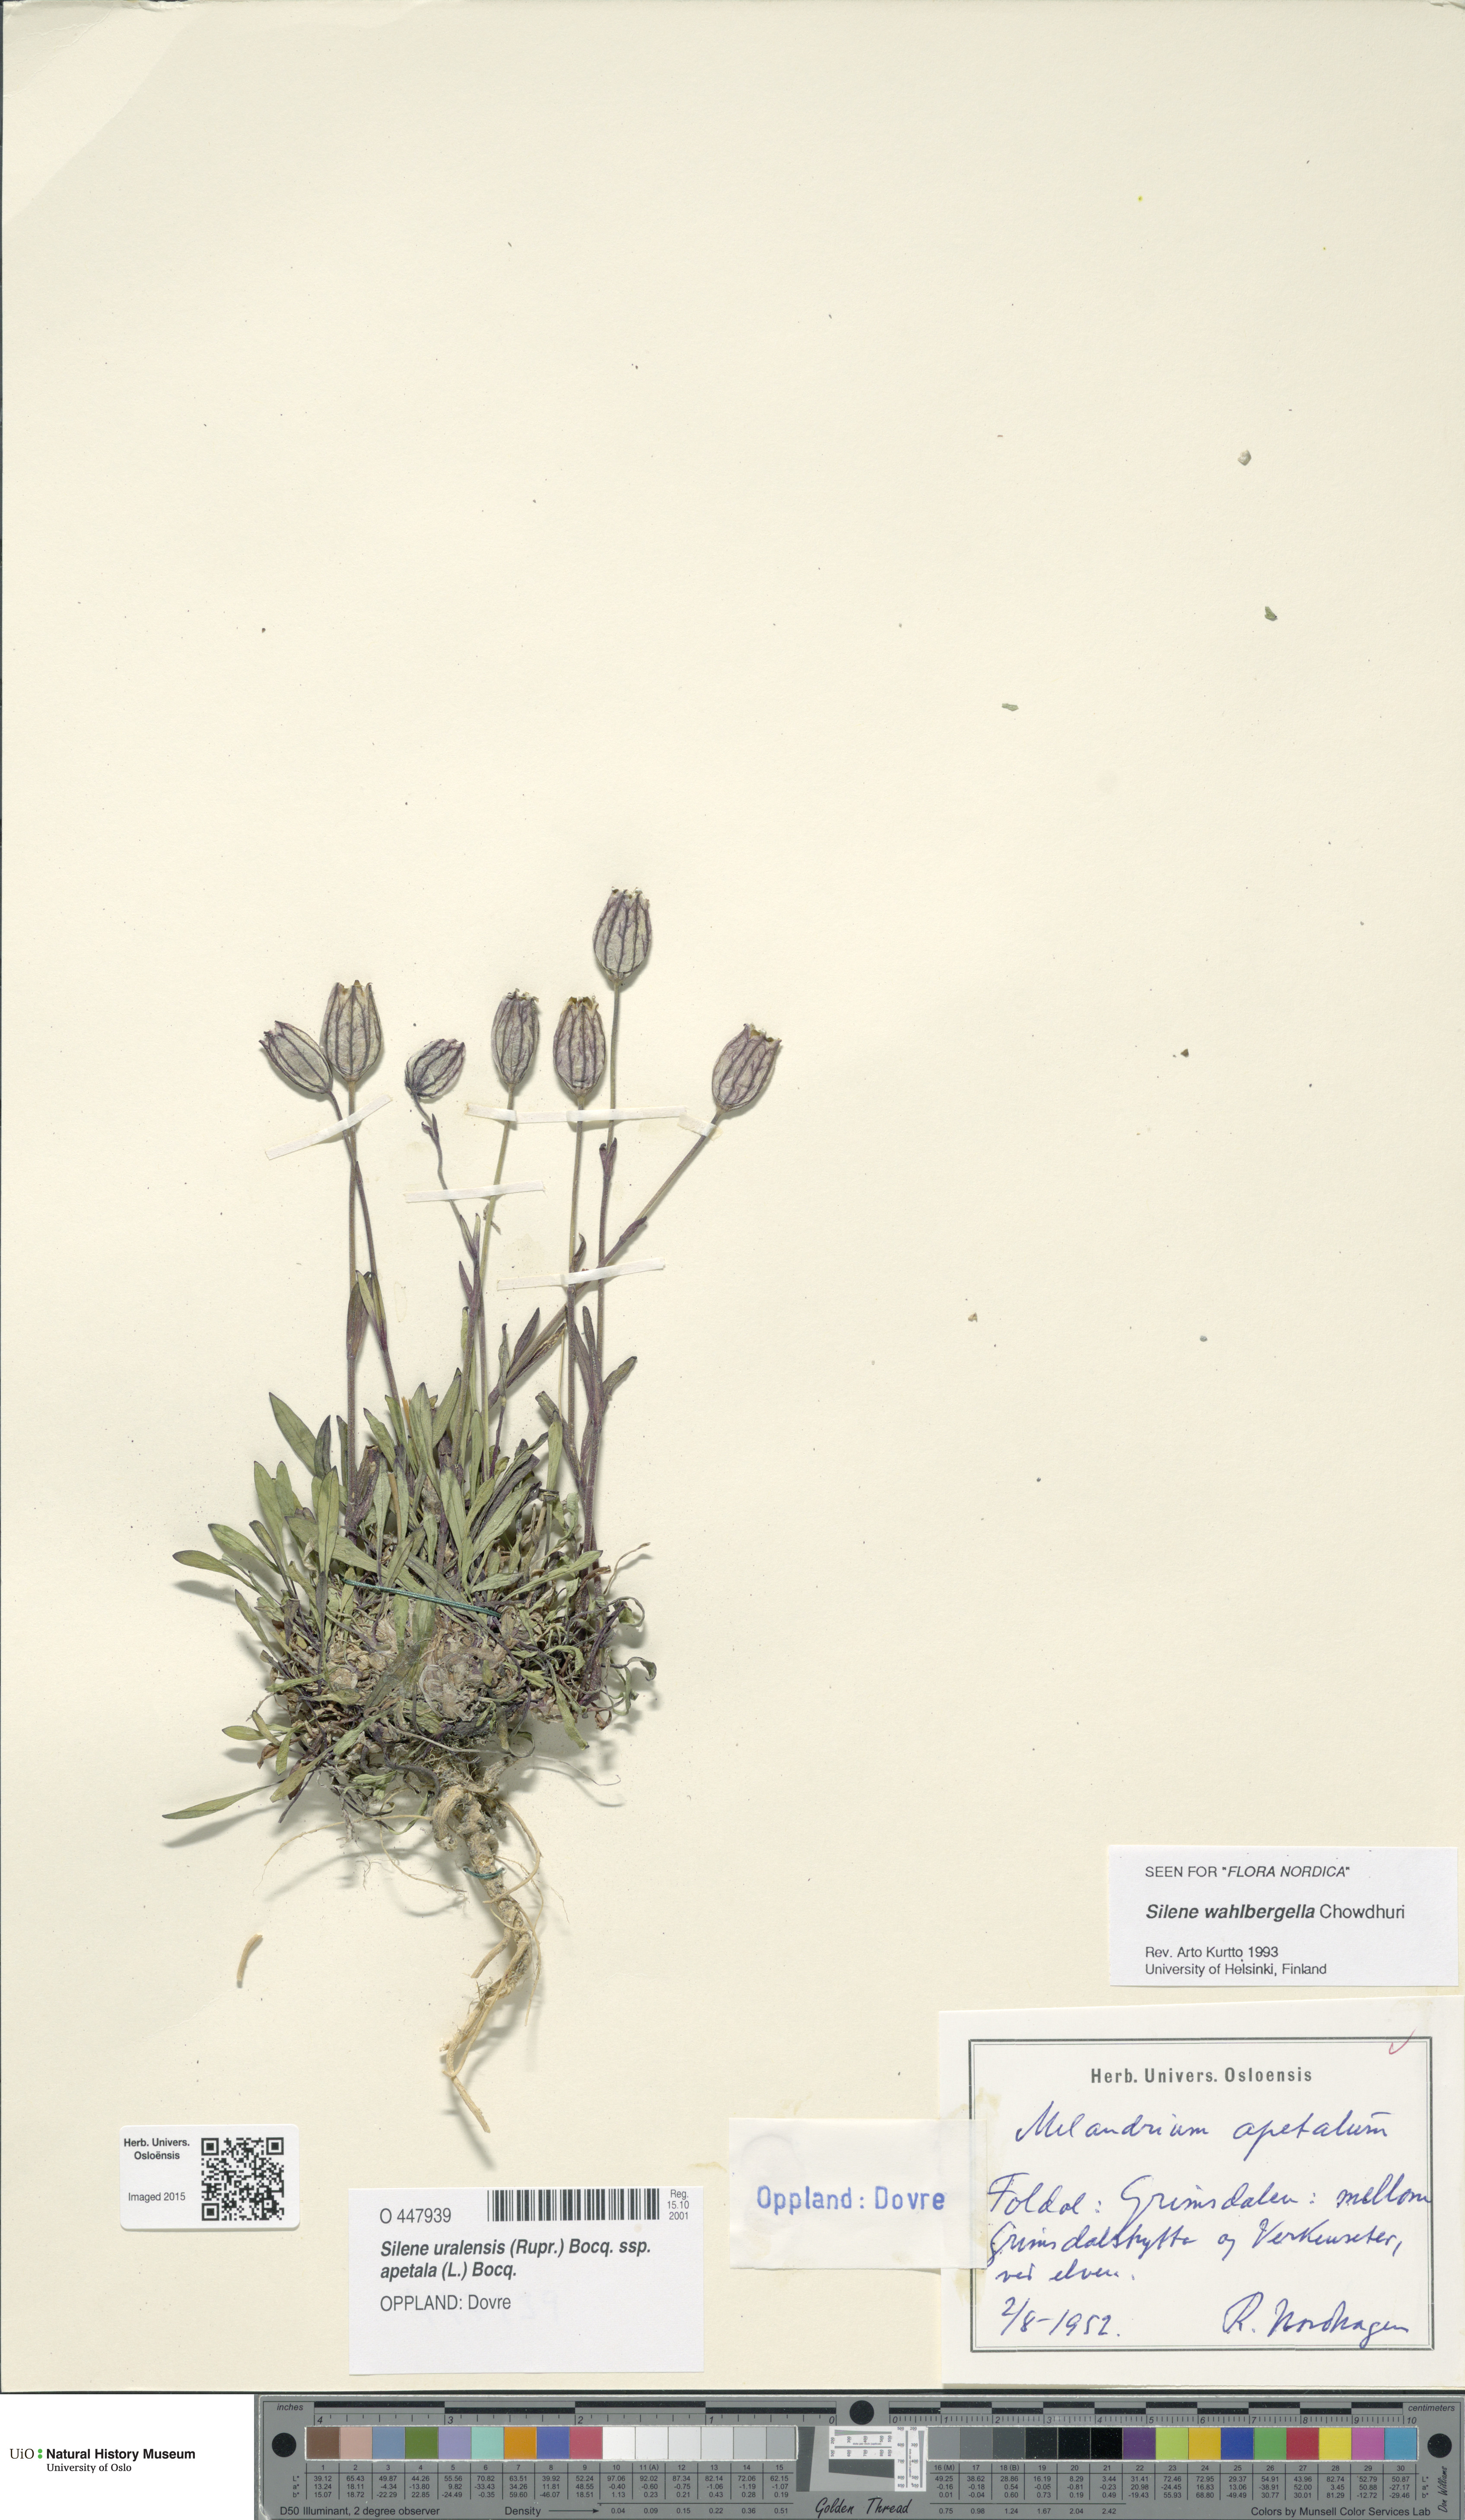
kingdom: Plantae
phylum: Tracheophyta
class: Magnoliopsida
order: Caryophyllales
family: Caryophyllaceae
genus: Silene
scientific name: Silene wahlbergella
